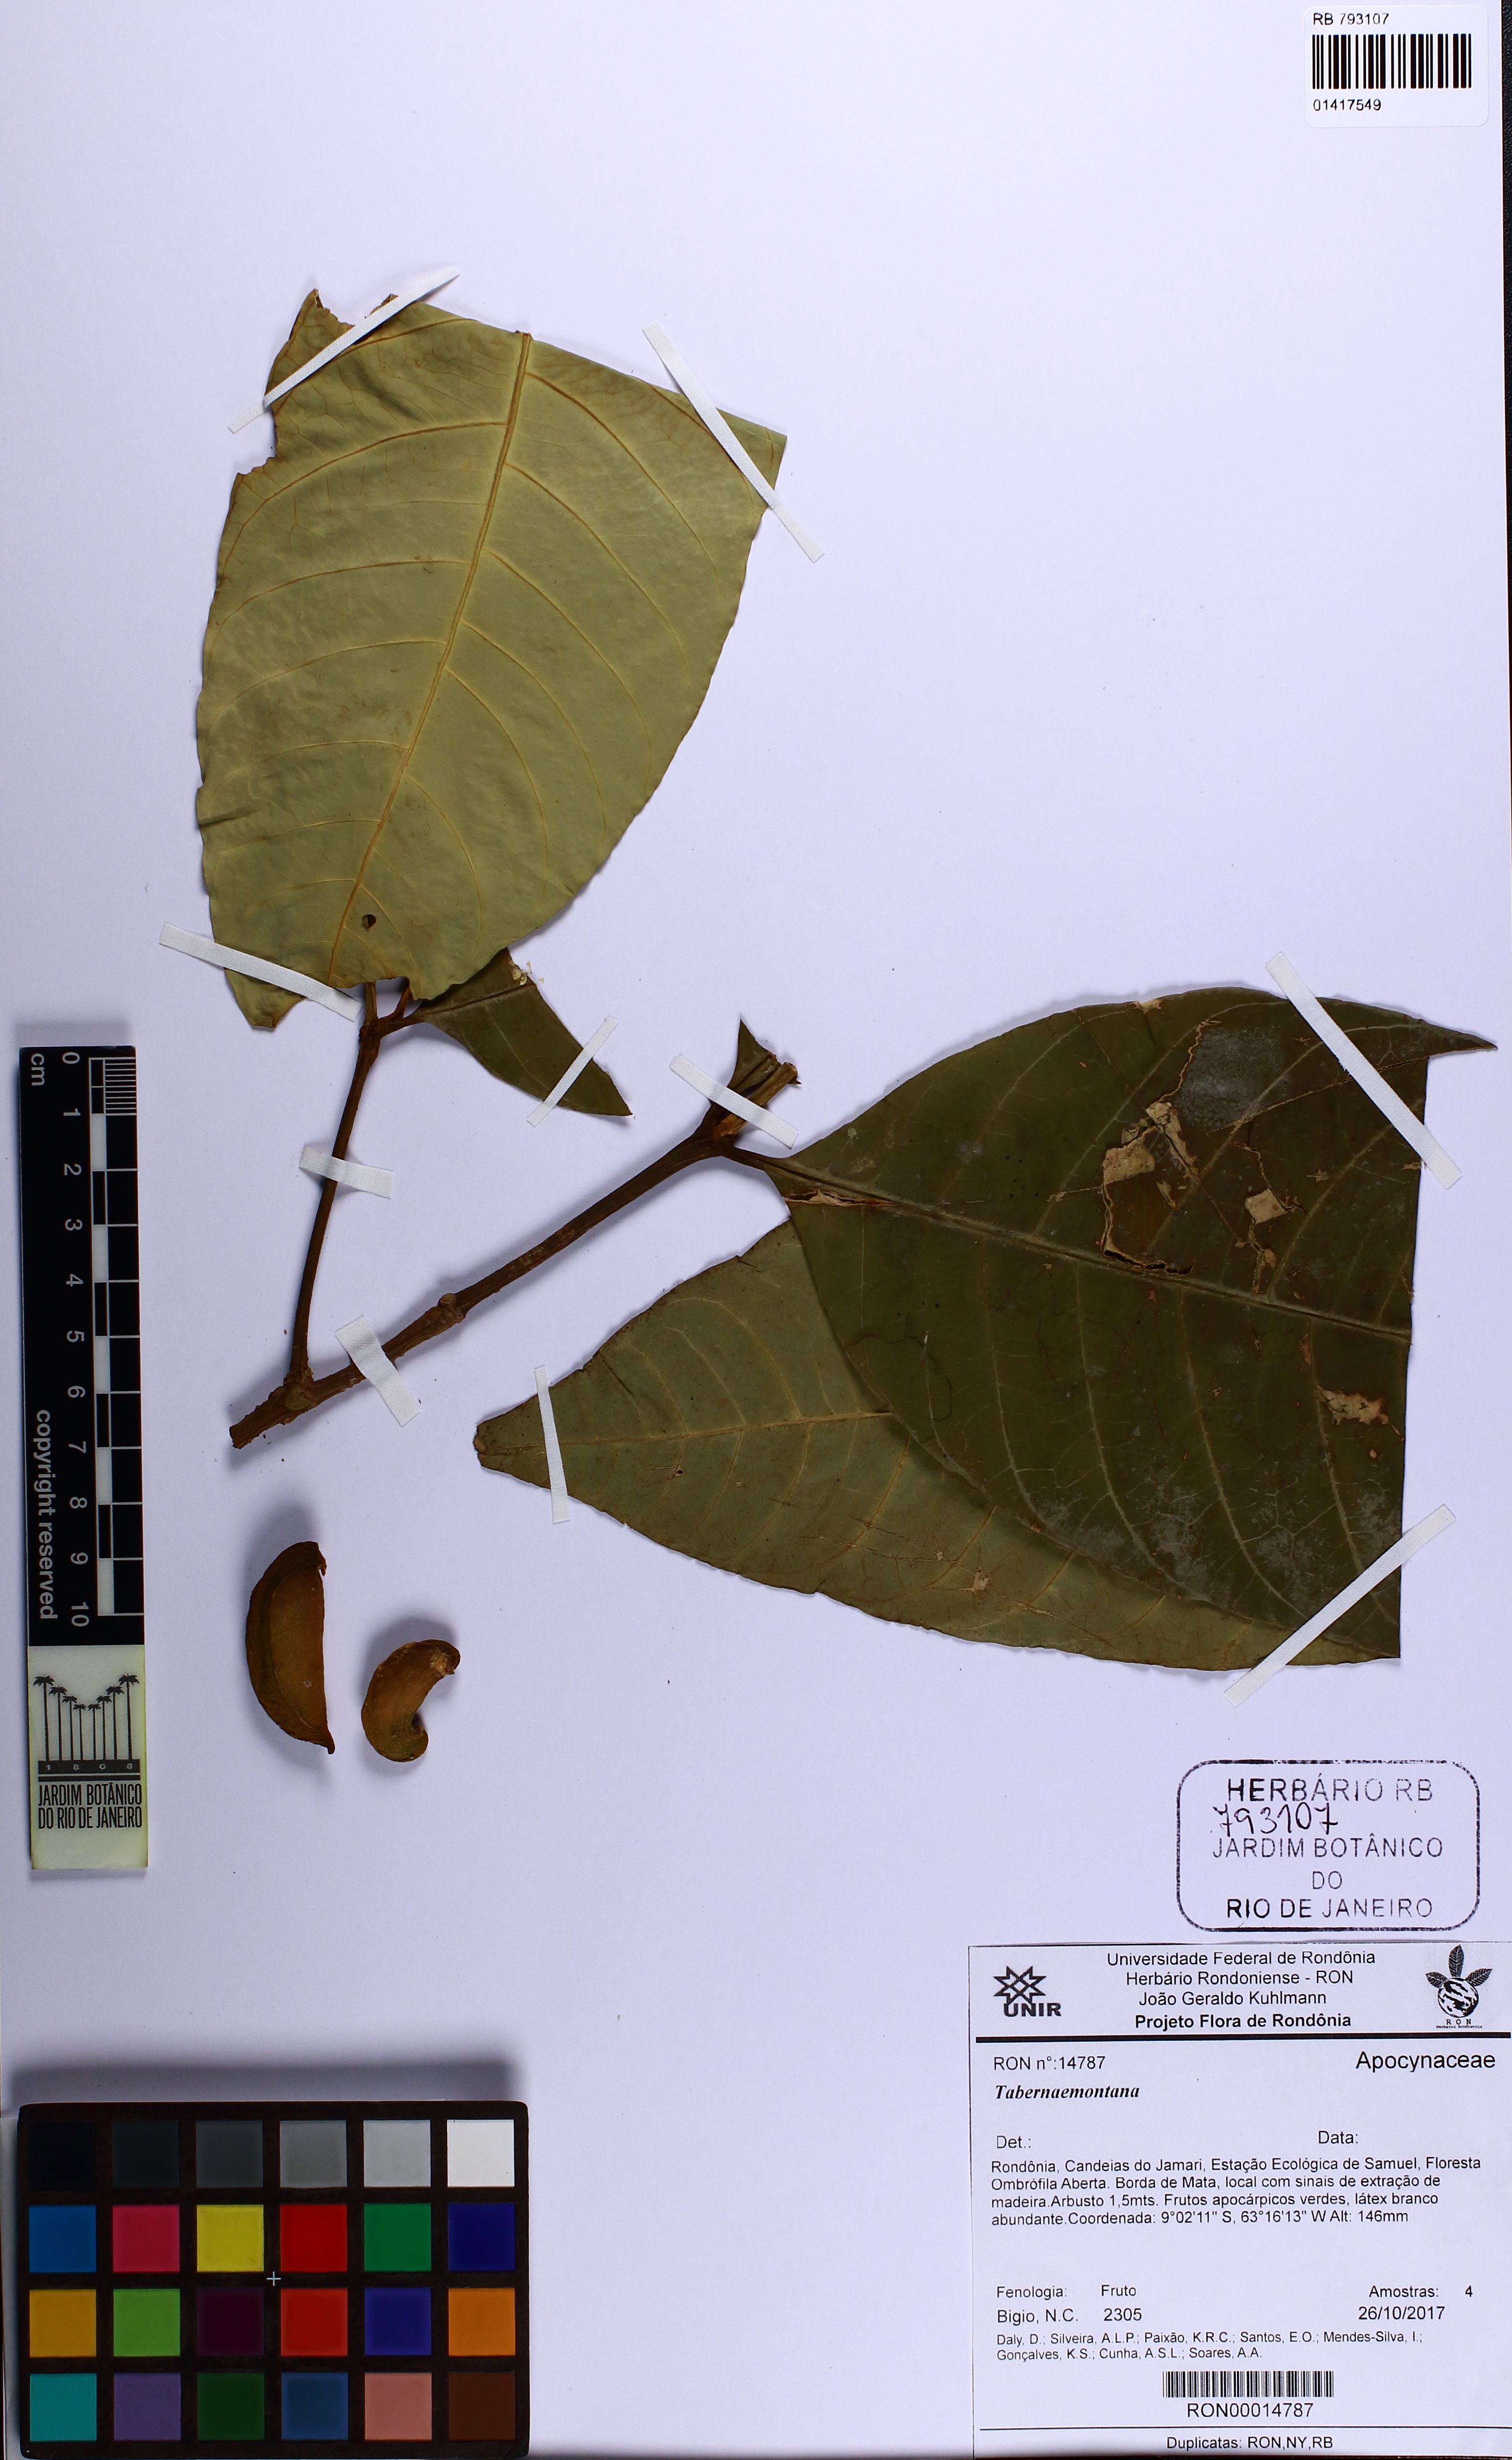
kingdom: Plantae
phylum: Tracheophyta
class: Magnoliopsida
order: Gentianales
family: Apocynaceae
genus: Tabernaemontana
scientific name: Tabernaemontana
